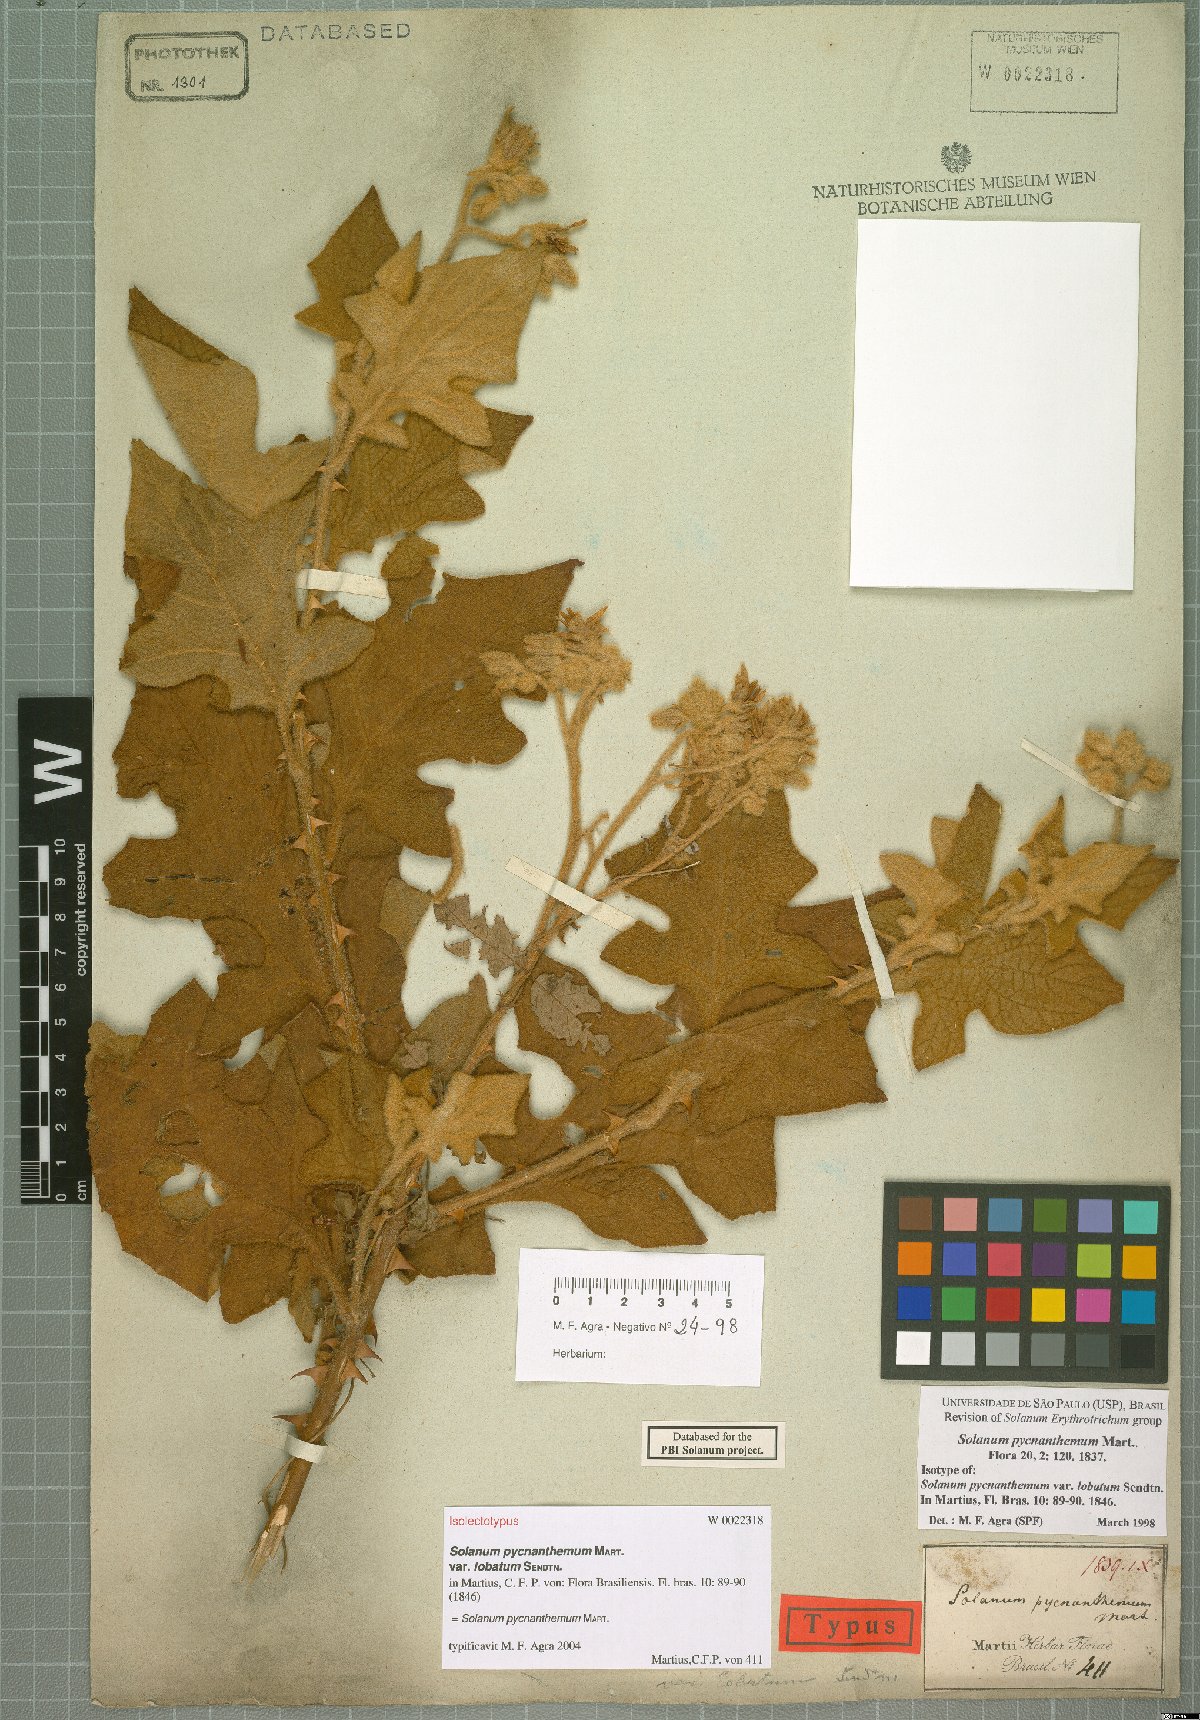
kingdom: Plantae
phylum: Tracheophyta
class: Magnoliopsida
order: Solanales
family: Solanaceae
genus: Solanum
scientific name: Solanum pycnanthemum
